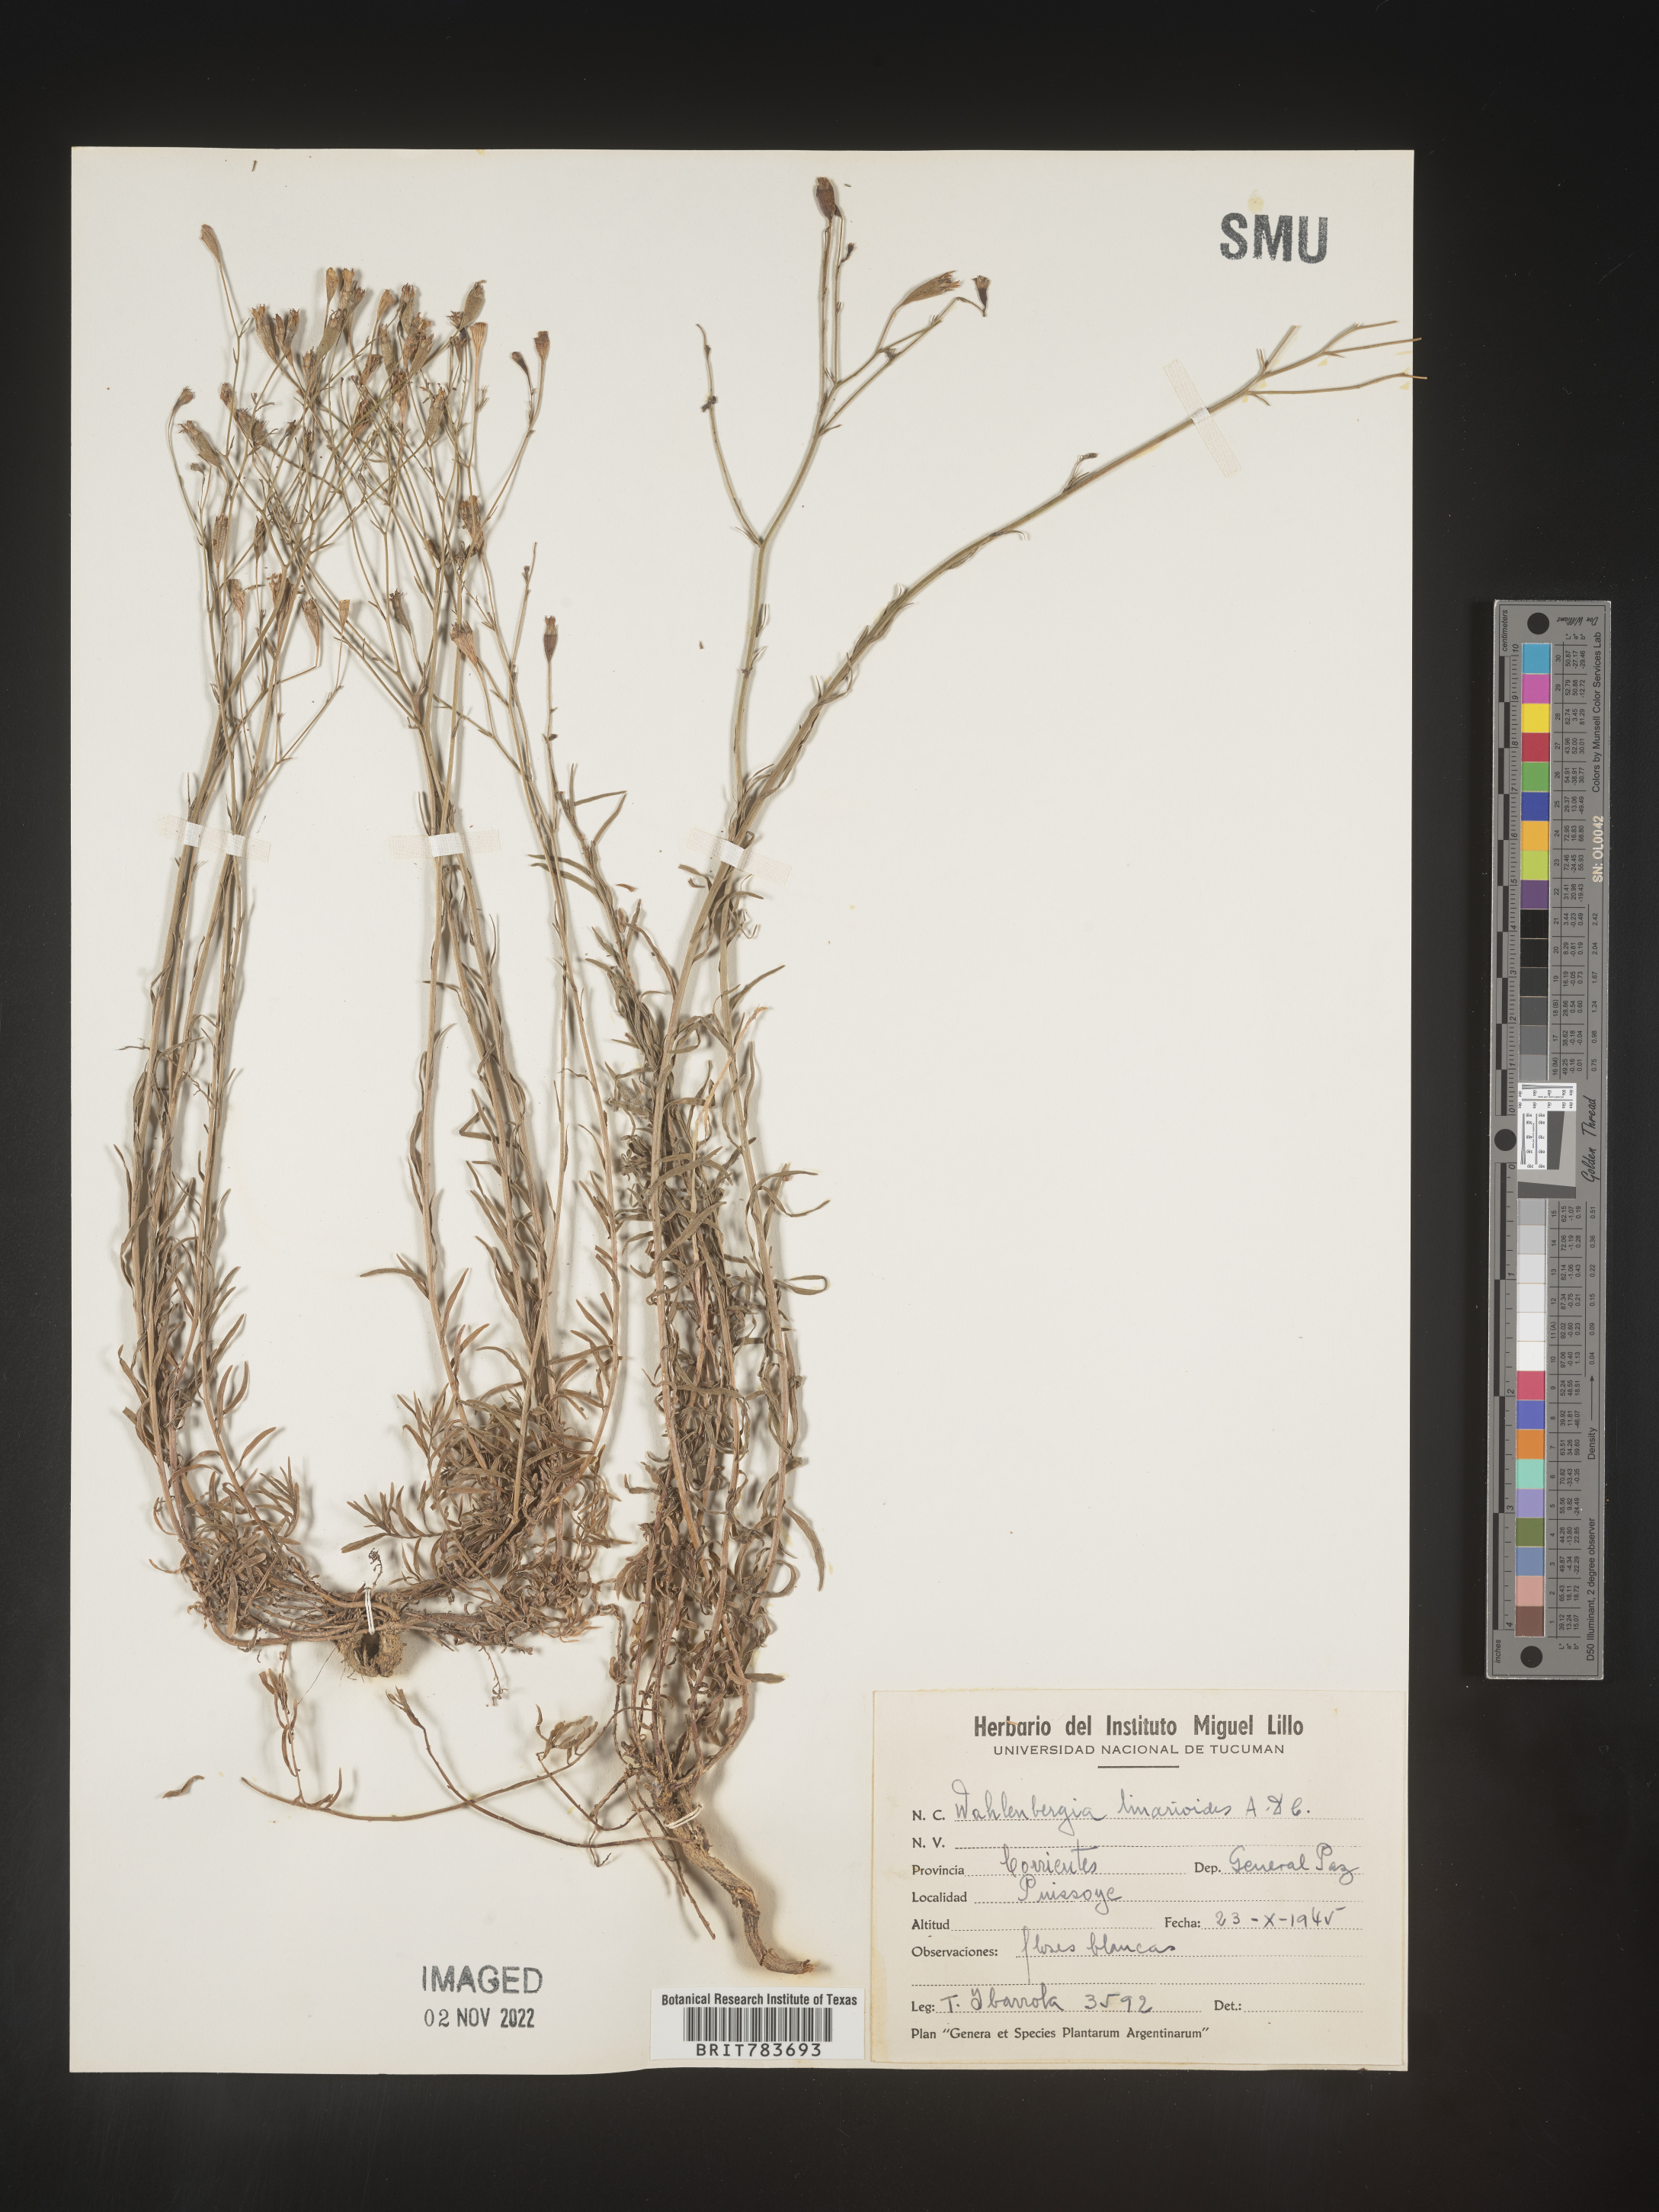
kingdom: Plantae
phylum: Tracheophyta
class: Magnoliopsida
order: Asterales
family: Campanulaceae
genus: Wahlenbergia
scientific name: Wahlenbergia
